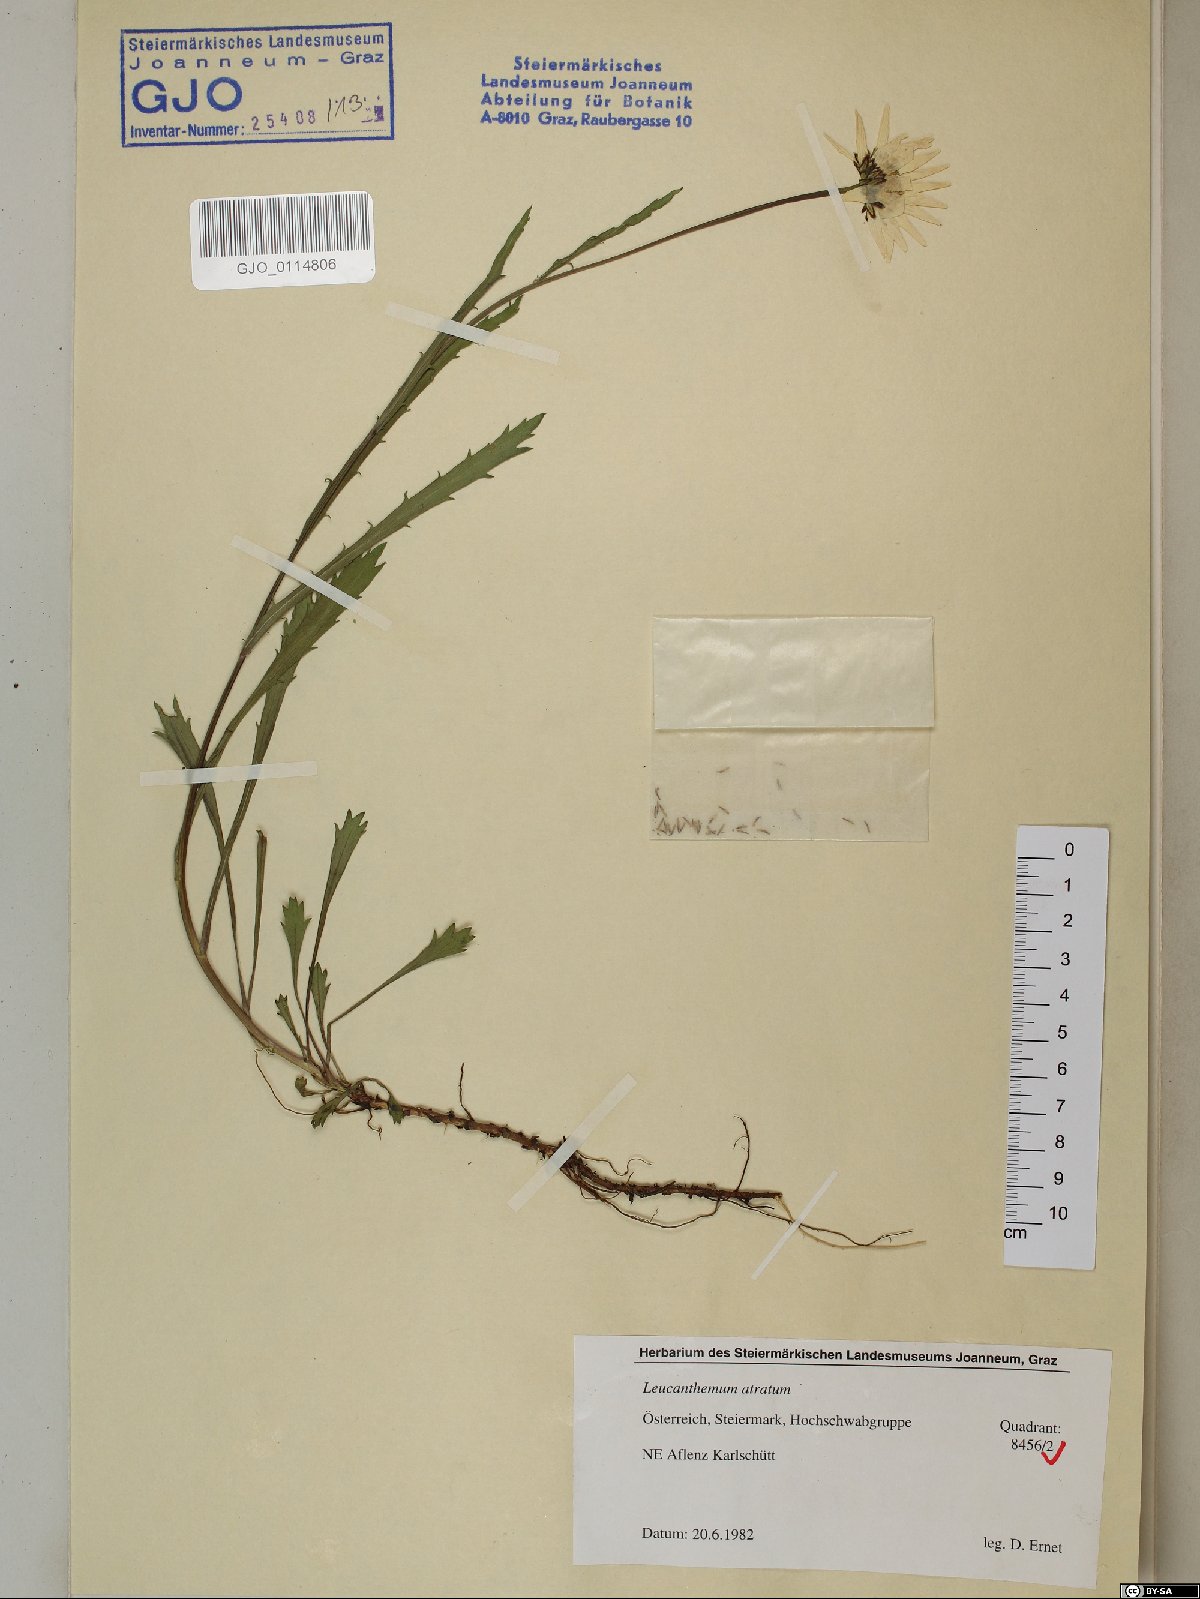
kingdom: Plantae
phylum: Tracheophyta
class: Magnoliopsida
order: Asterales
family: Asteraceae
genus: Leucanthemum
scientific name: Leucanthemum atratum
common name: Saw-leaved moon-daisy
